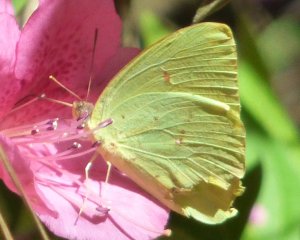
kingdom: Animalia
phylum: Arthropoda
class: Insecta
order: Lepidoptera
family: Pieridae
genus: Phoebis
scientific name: Phoebis sennae
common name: Cloudless Sulphur
